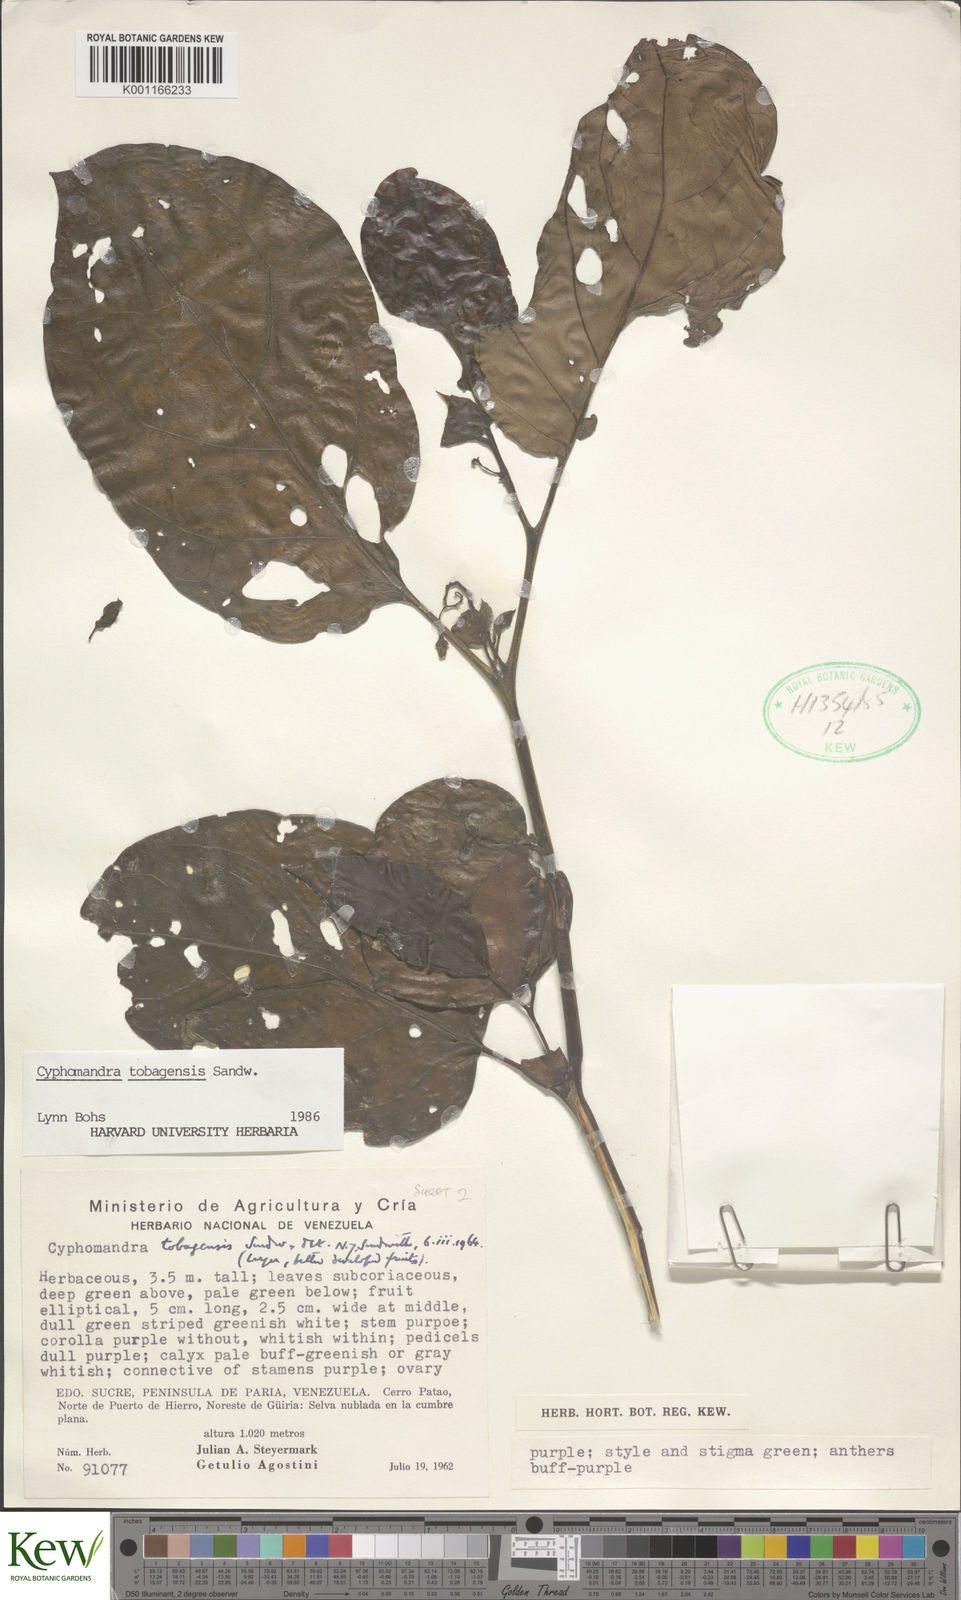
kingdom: Plantae
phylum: Tracheophyta
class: Magnoliopsida
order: Solanales
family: Solanaceae
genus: Solanum
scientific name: Solanum tobagense
